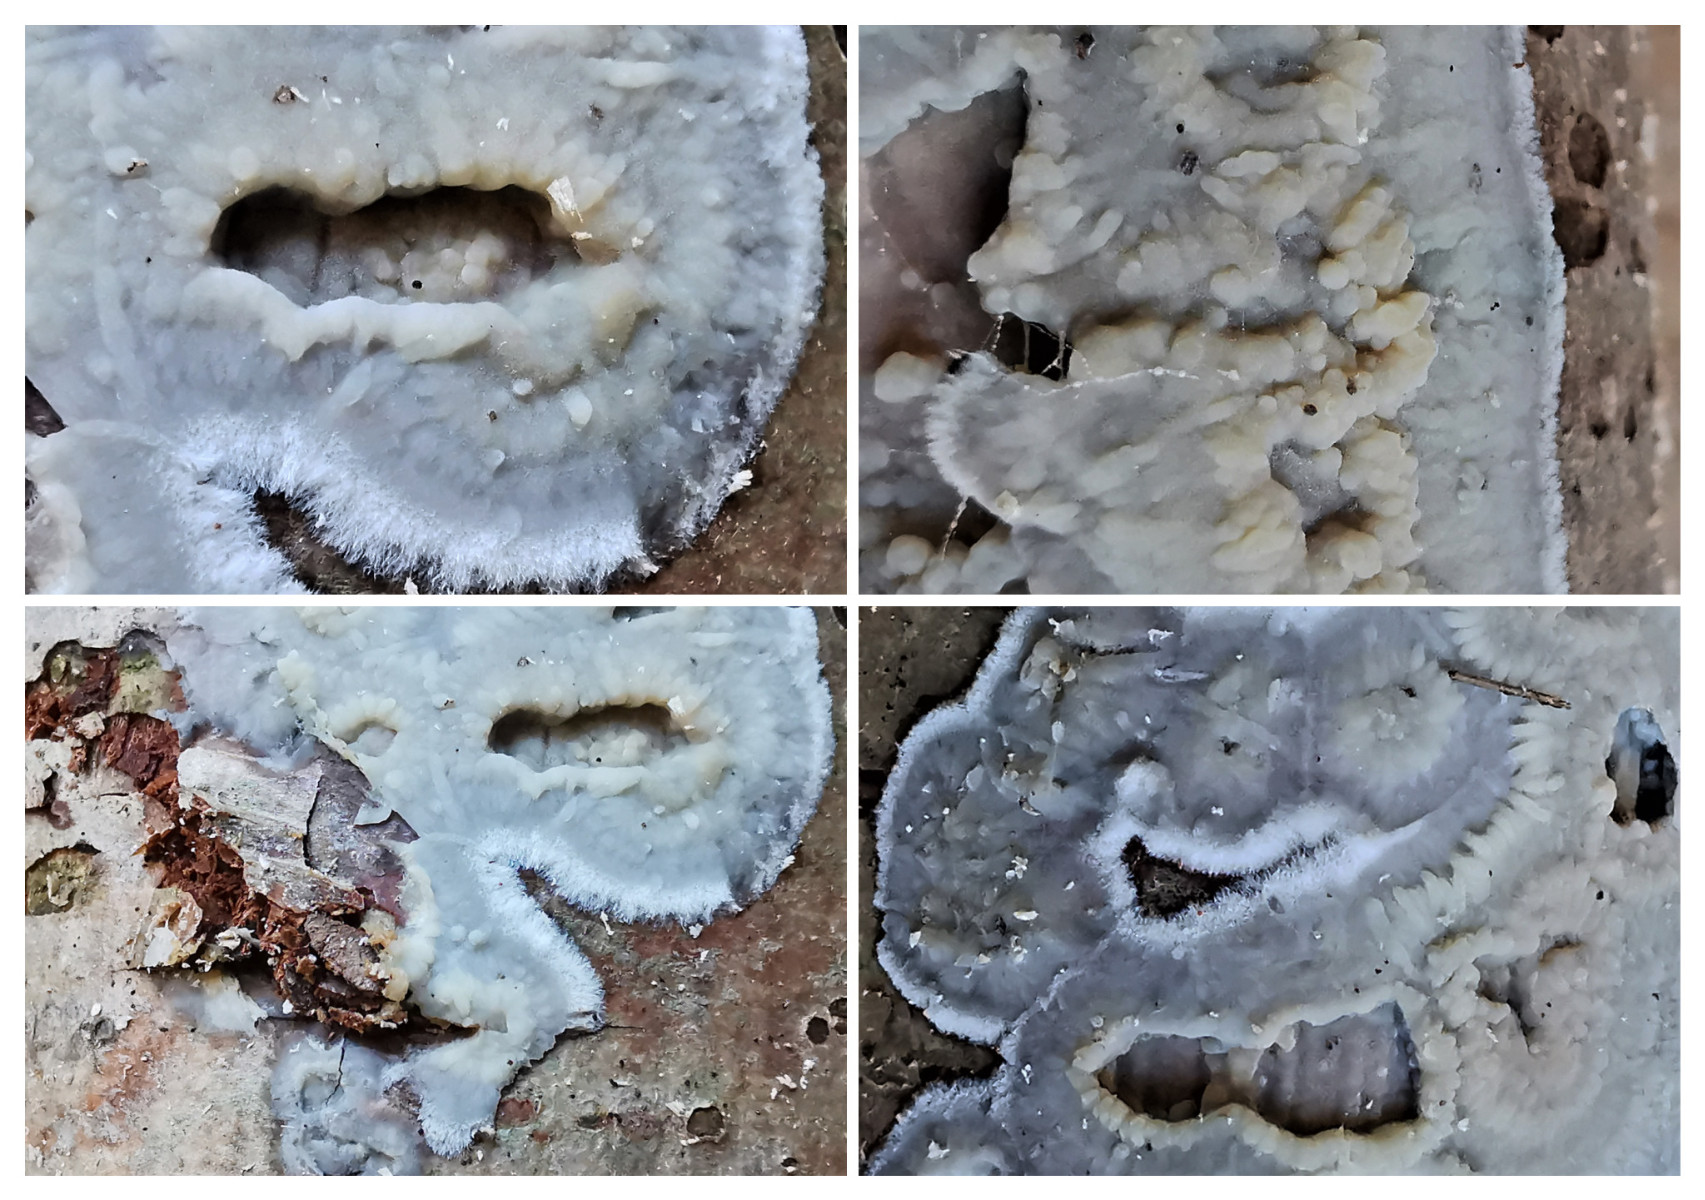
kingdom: Fungi
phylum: Basidiomycota
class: Agaricomycetes
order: Auriculariales
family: Auriculariaceae
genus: Exidia
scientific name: Exidia thuretiana
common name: hvidlig bævretop
